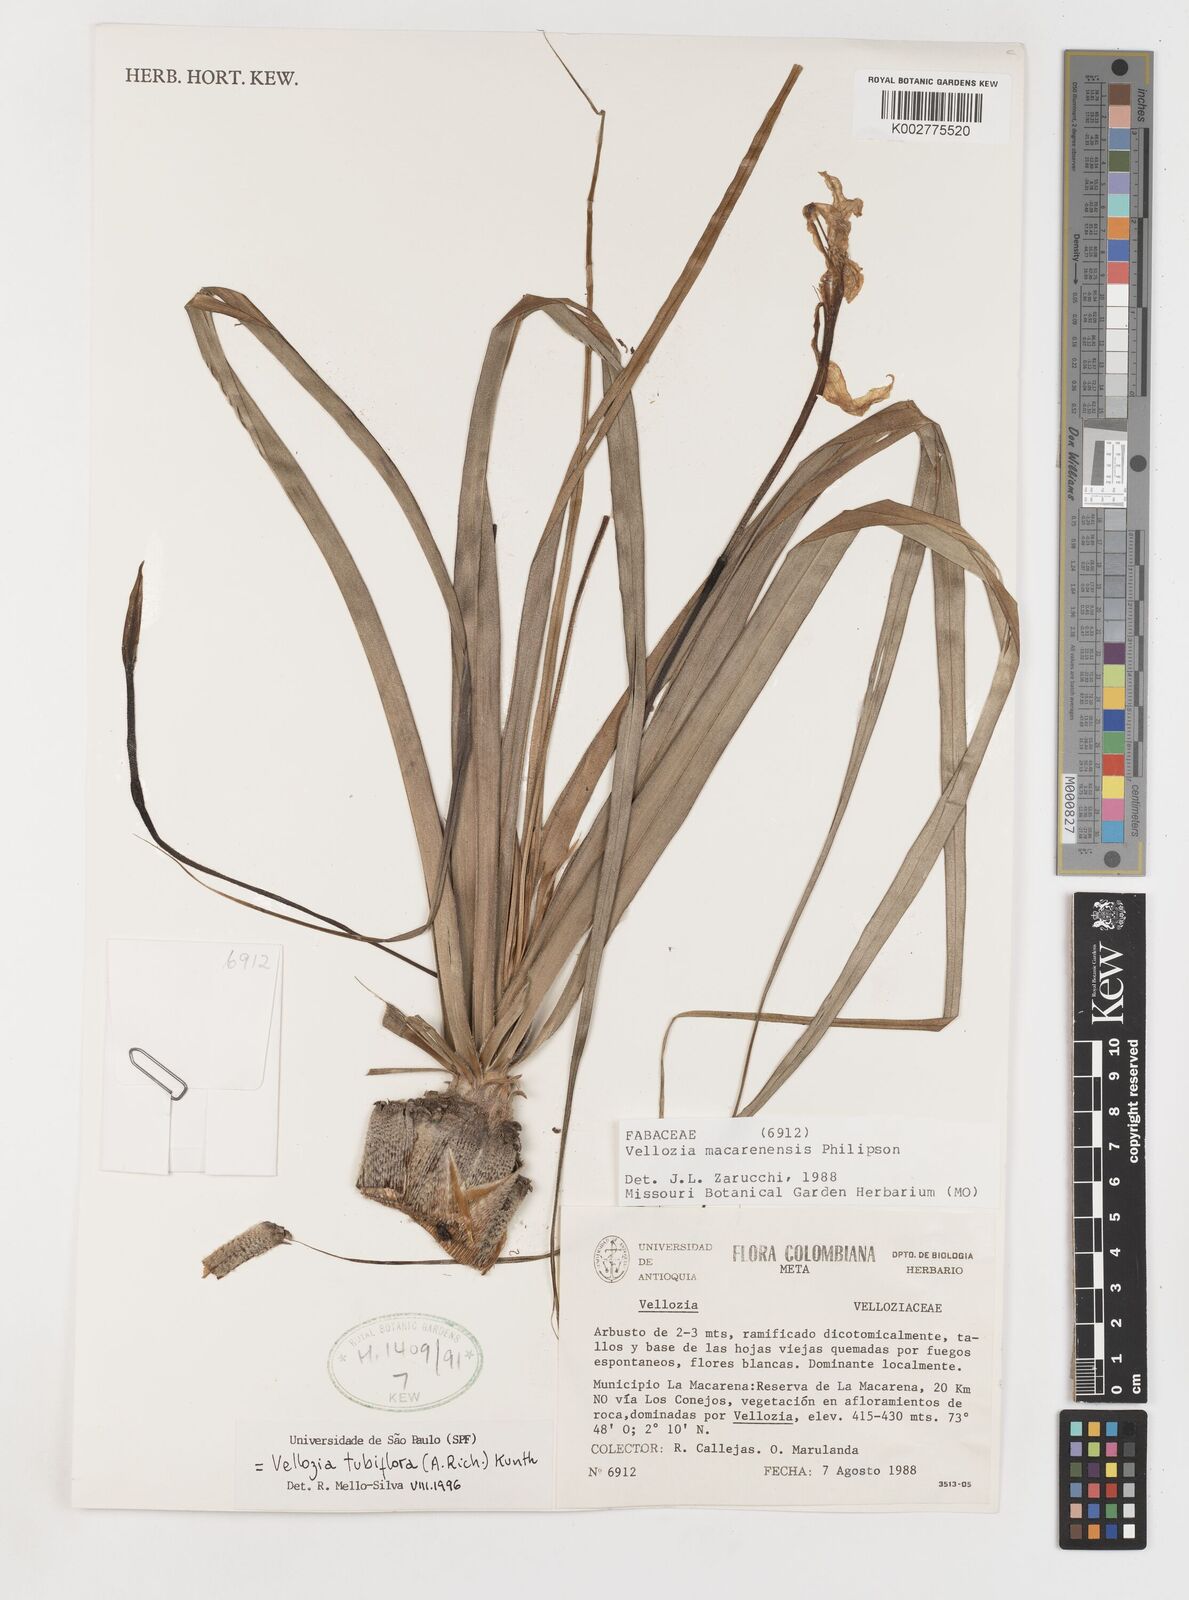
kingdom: Plantae
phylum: Tracheophyta
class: Liliopsida
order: Pandanales
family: Velloziaceae
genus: Vellozia
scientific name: Vellozia tubiflora
